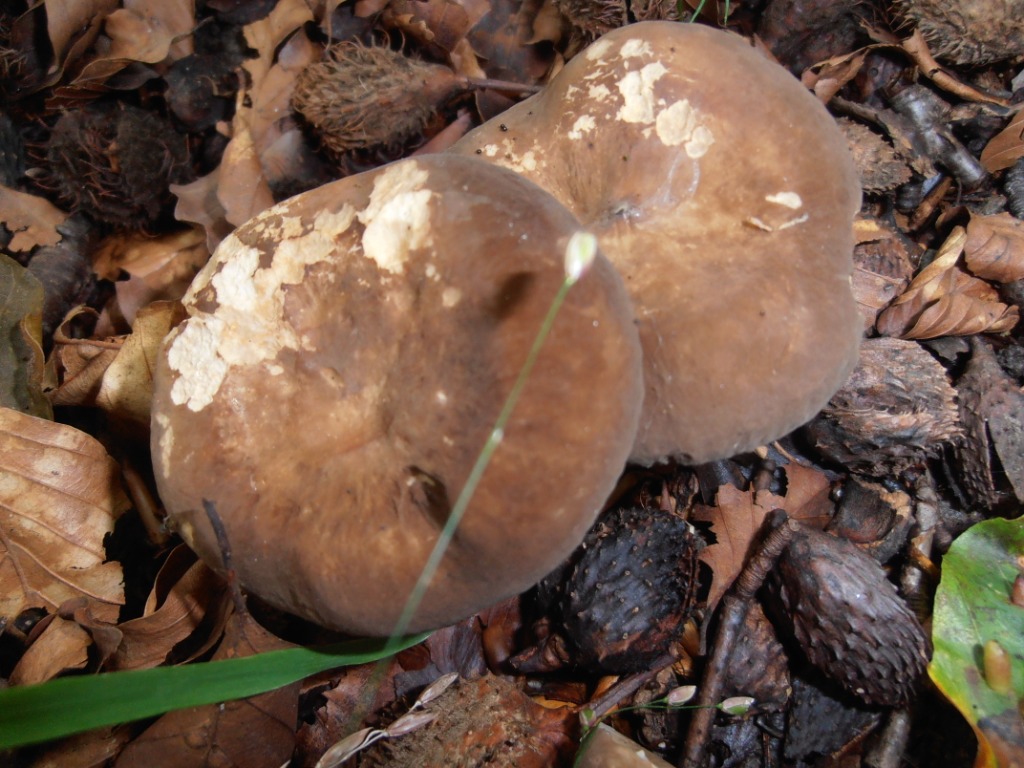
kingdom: Fungi
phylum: Basidiomycota
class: Agaricomycetes
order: Russulales
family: Russulaceae
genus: Lactarius
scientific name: Lactarius romagnesii
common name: fjernbladet mælkehat
